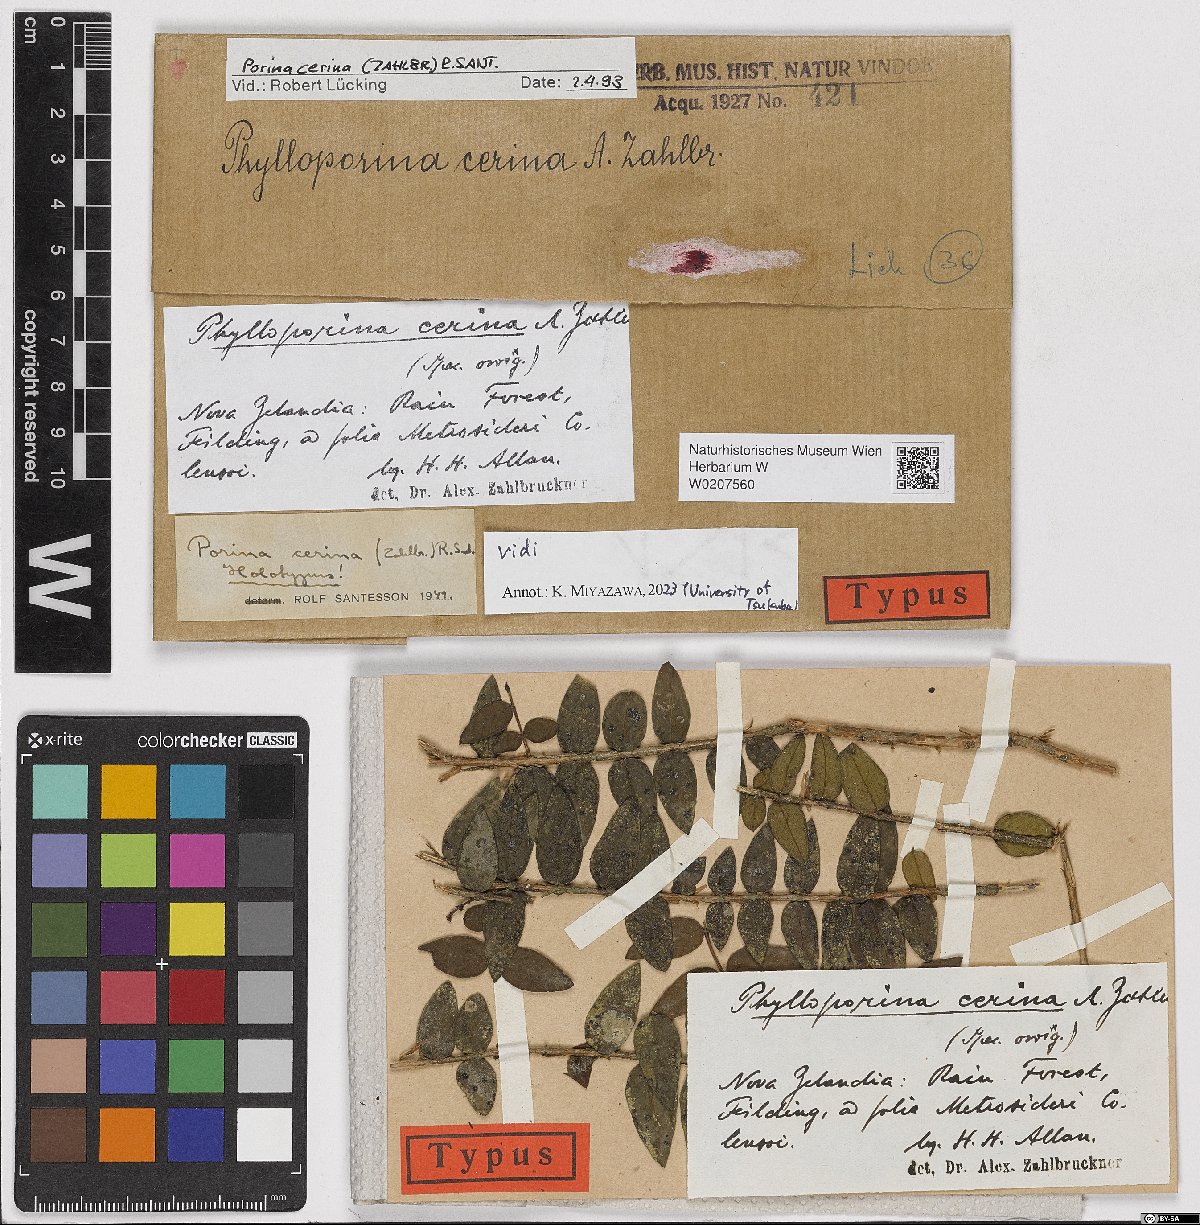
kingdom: Fungi
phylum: Ascomycota
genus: Phylloporina
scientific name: Phylloporina
